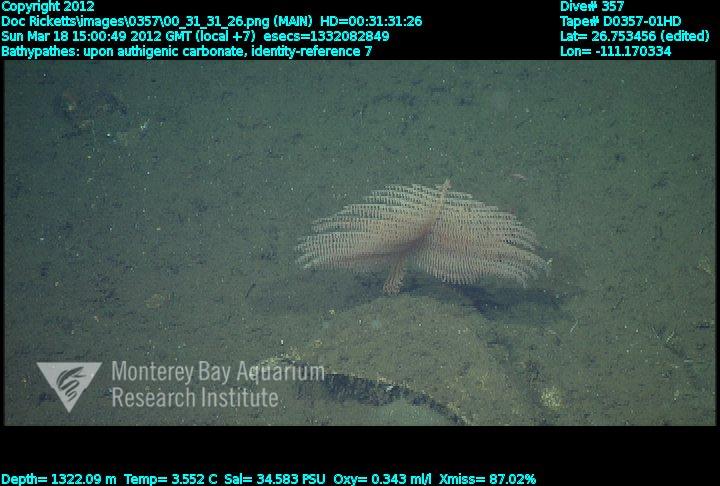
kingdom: Animalia
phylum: Cnidaria
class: Anthozoa
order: Antipatharia
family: Schizopathidae
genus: Bathypathes
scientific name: Bathypathes
